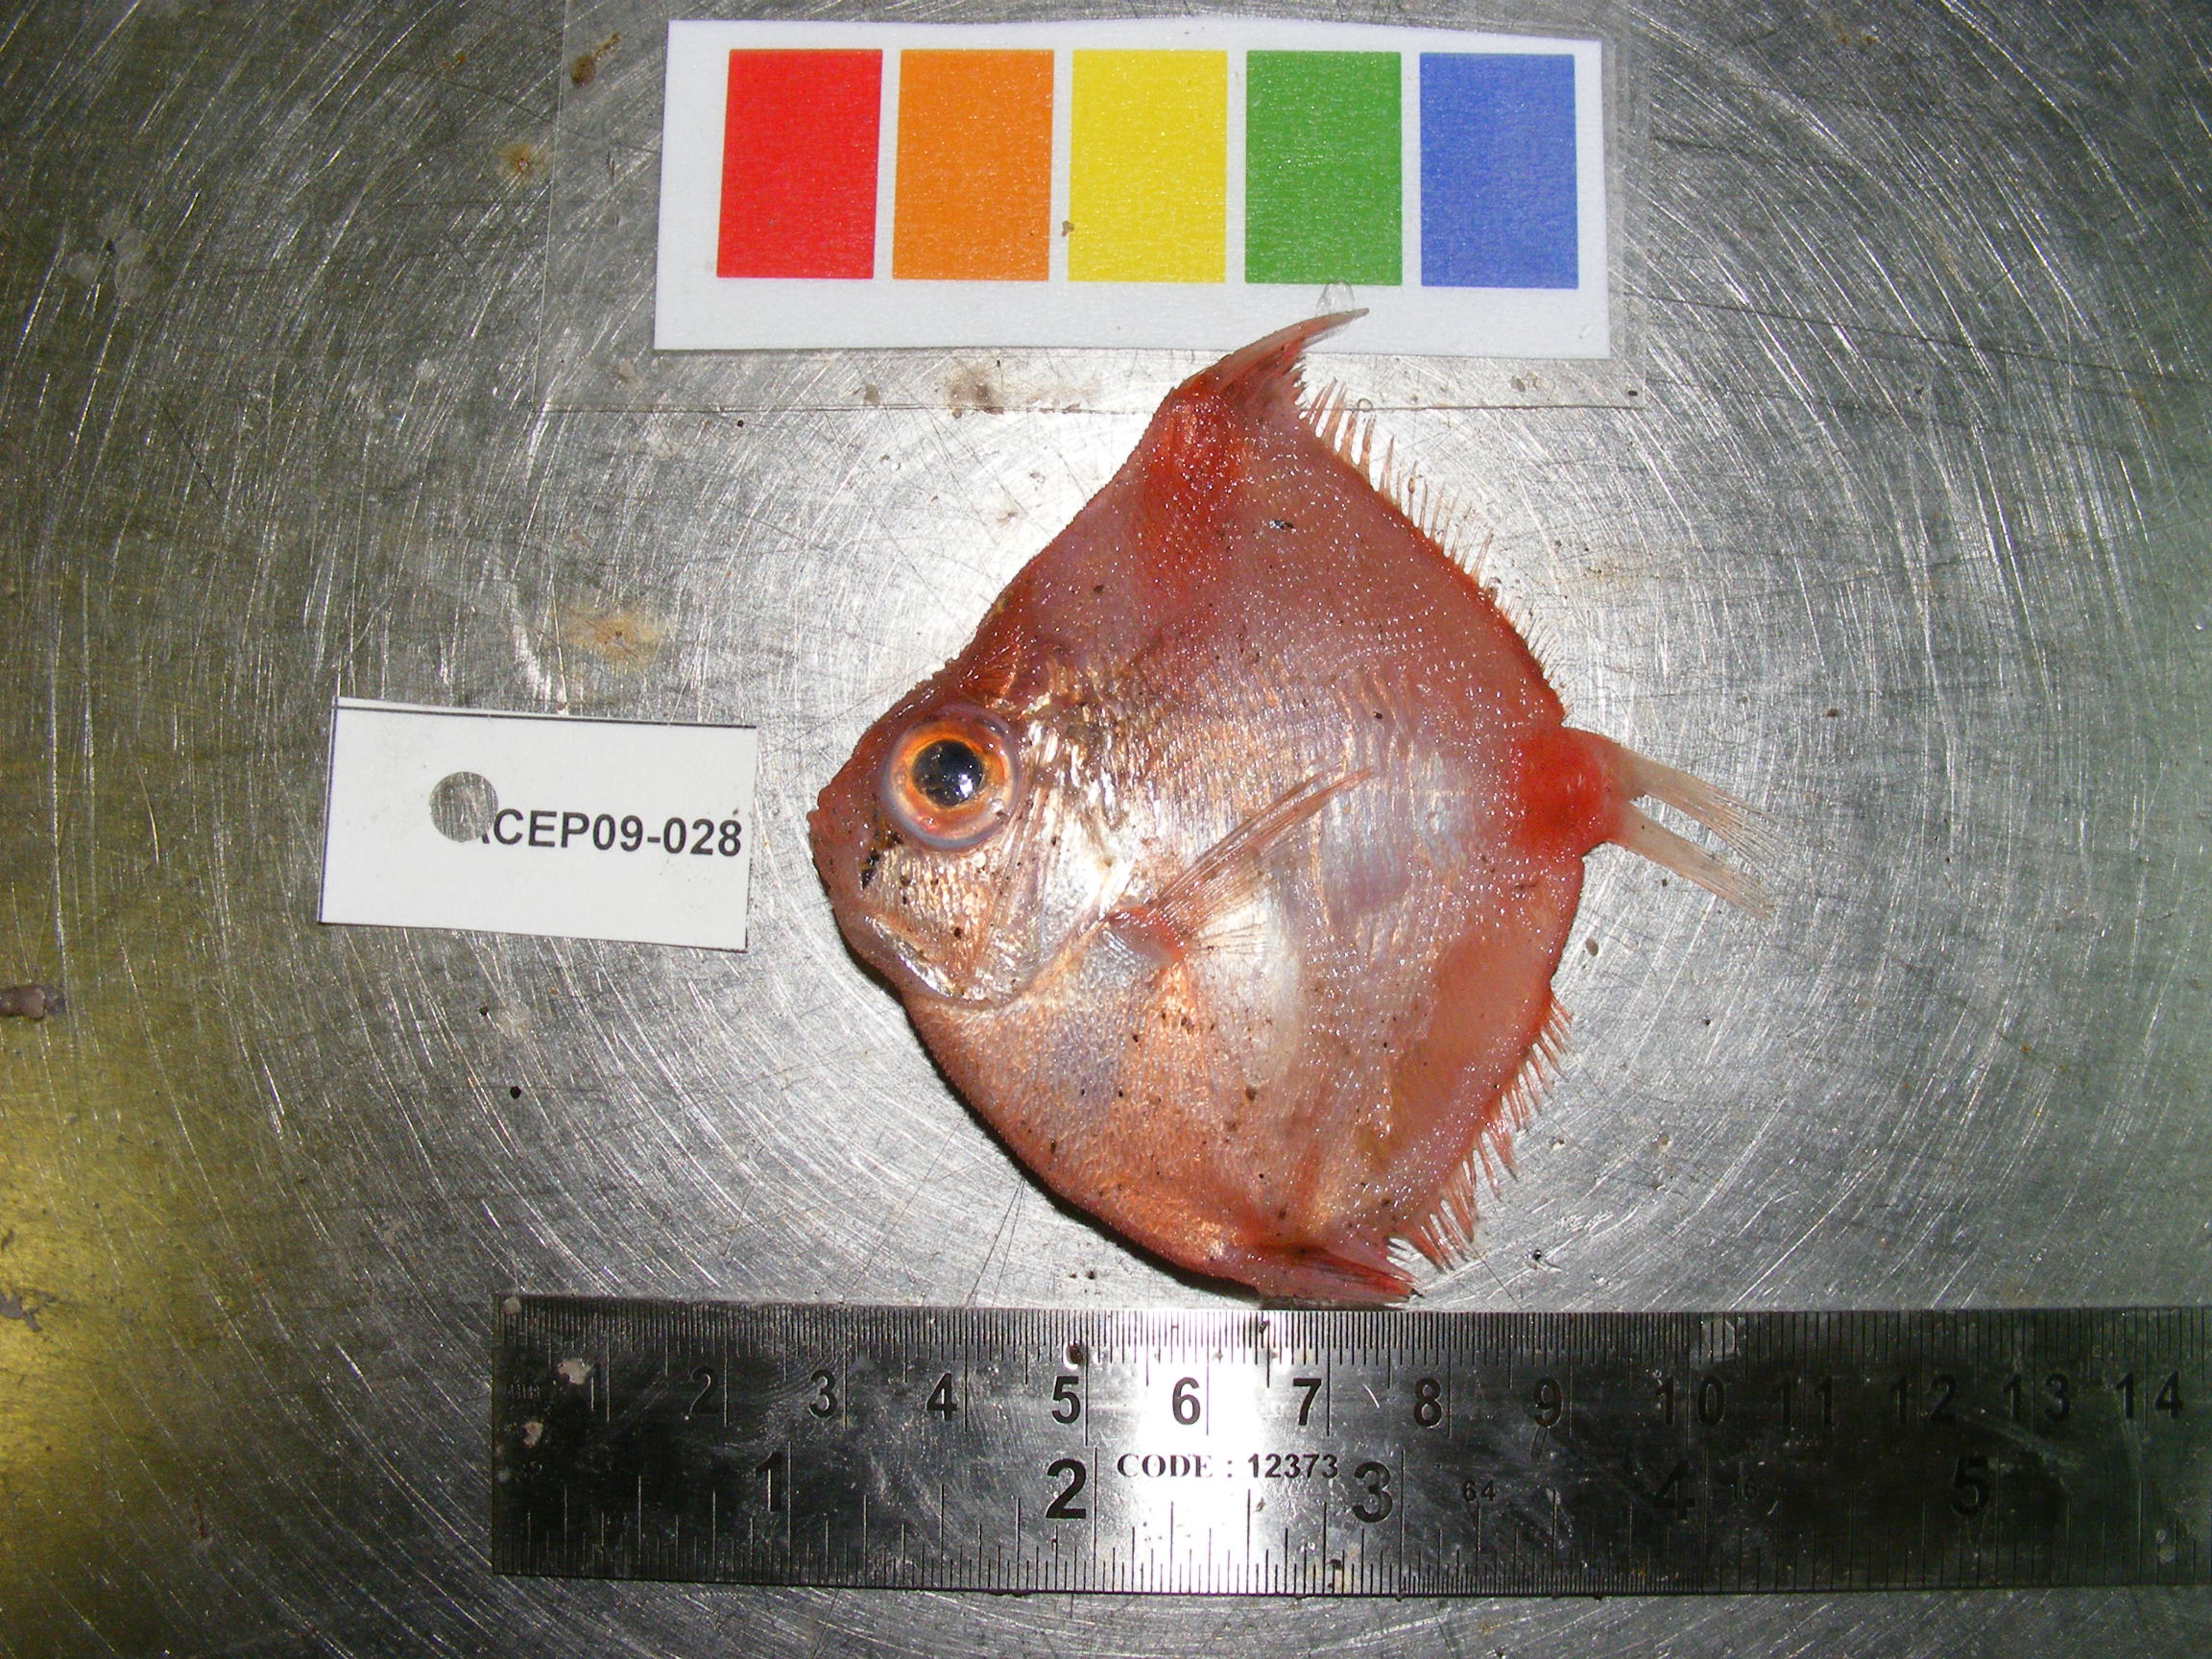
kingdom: Animalia
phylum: Chordata
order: Perciformes
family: Caproidae
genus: Antigonia
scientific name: Antigonia capros
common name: Deepbody boarfish
